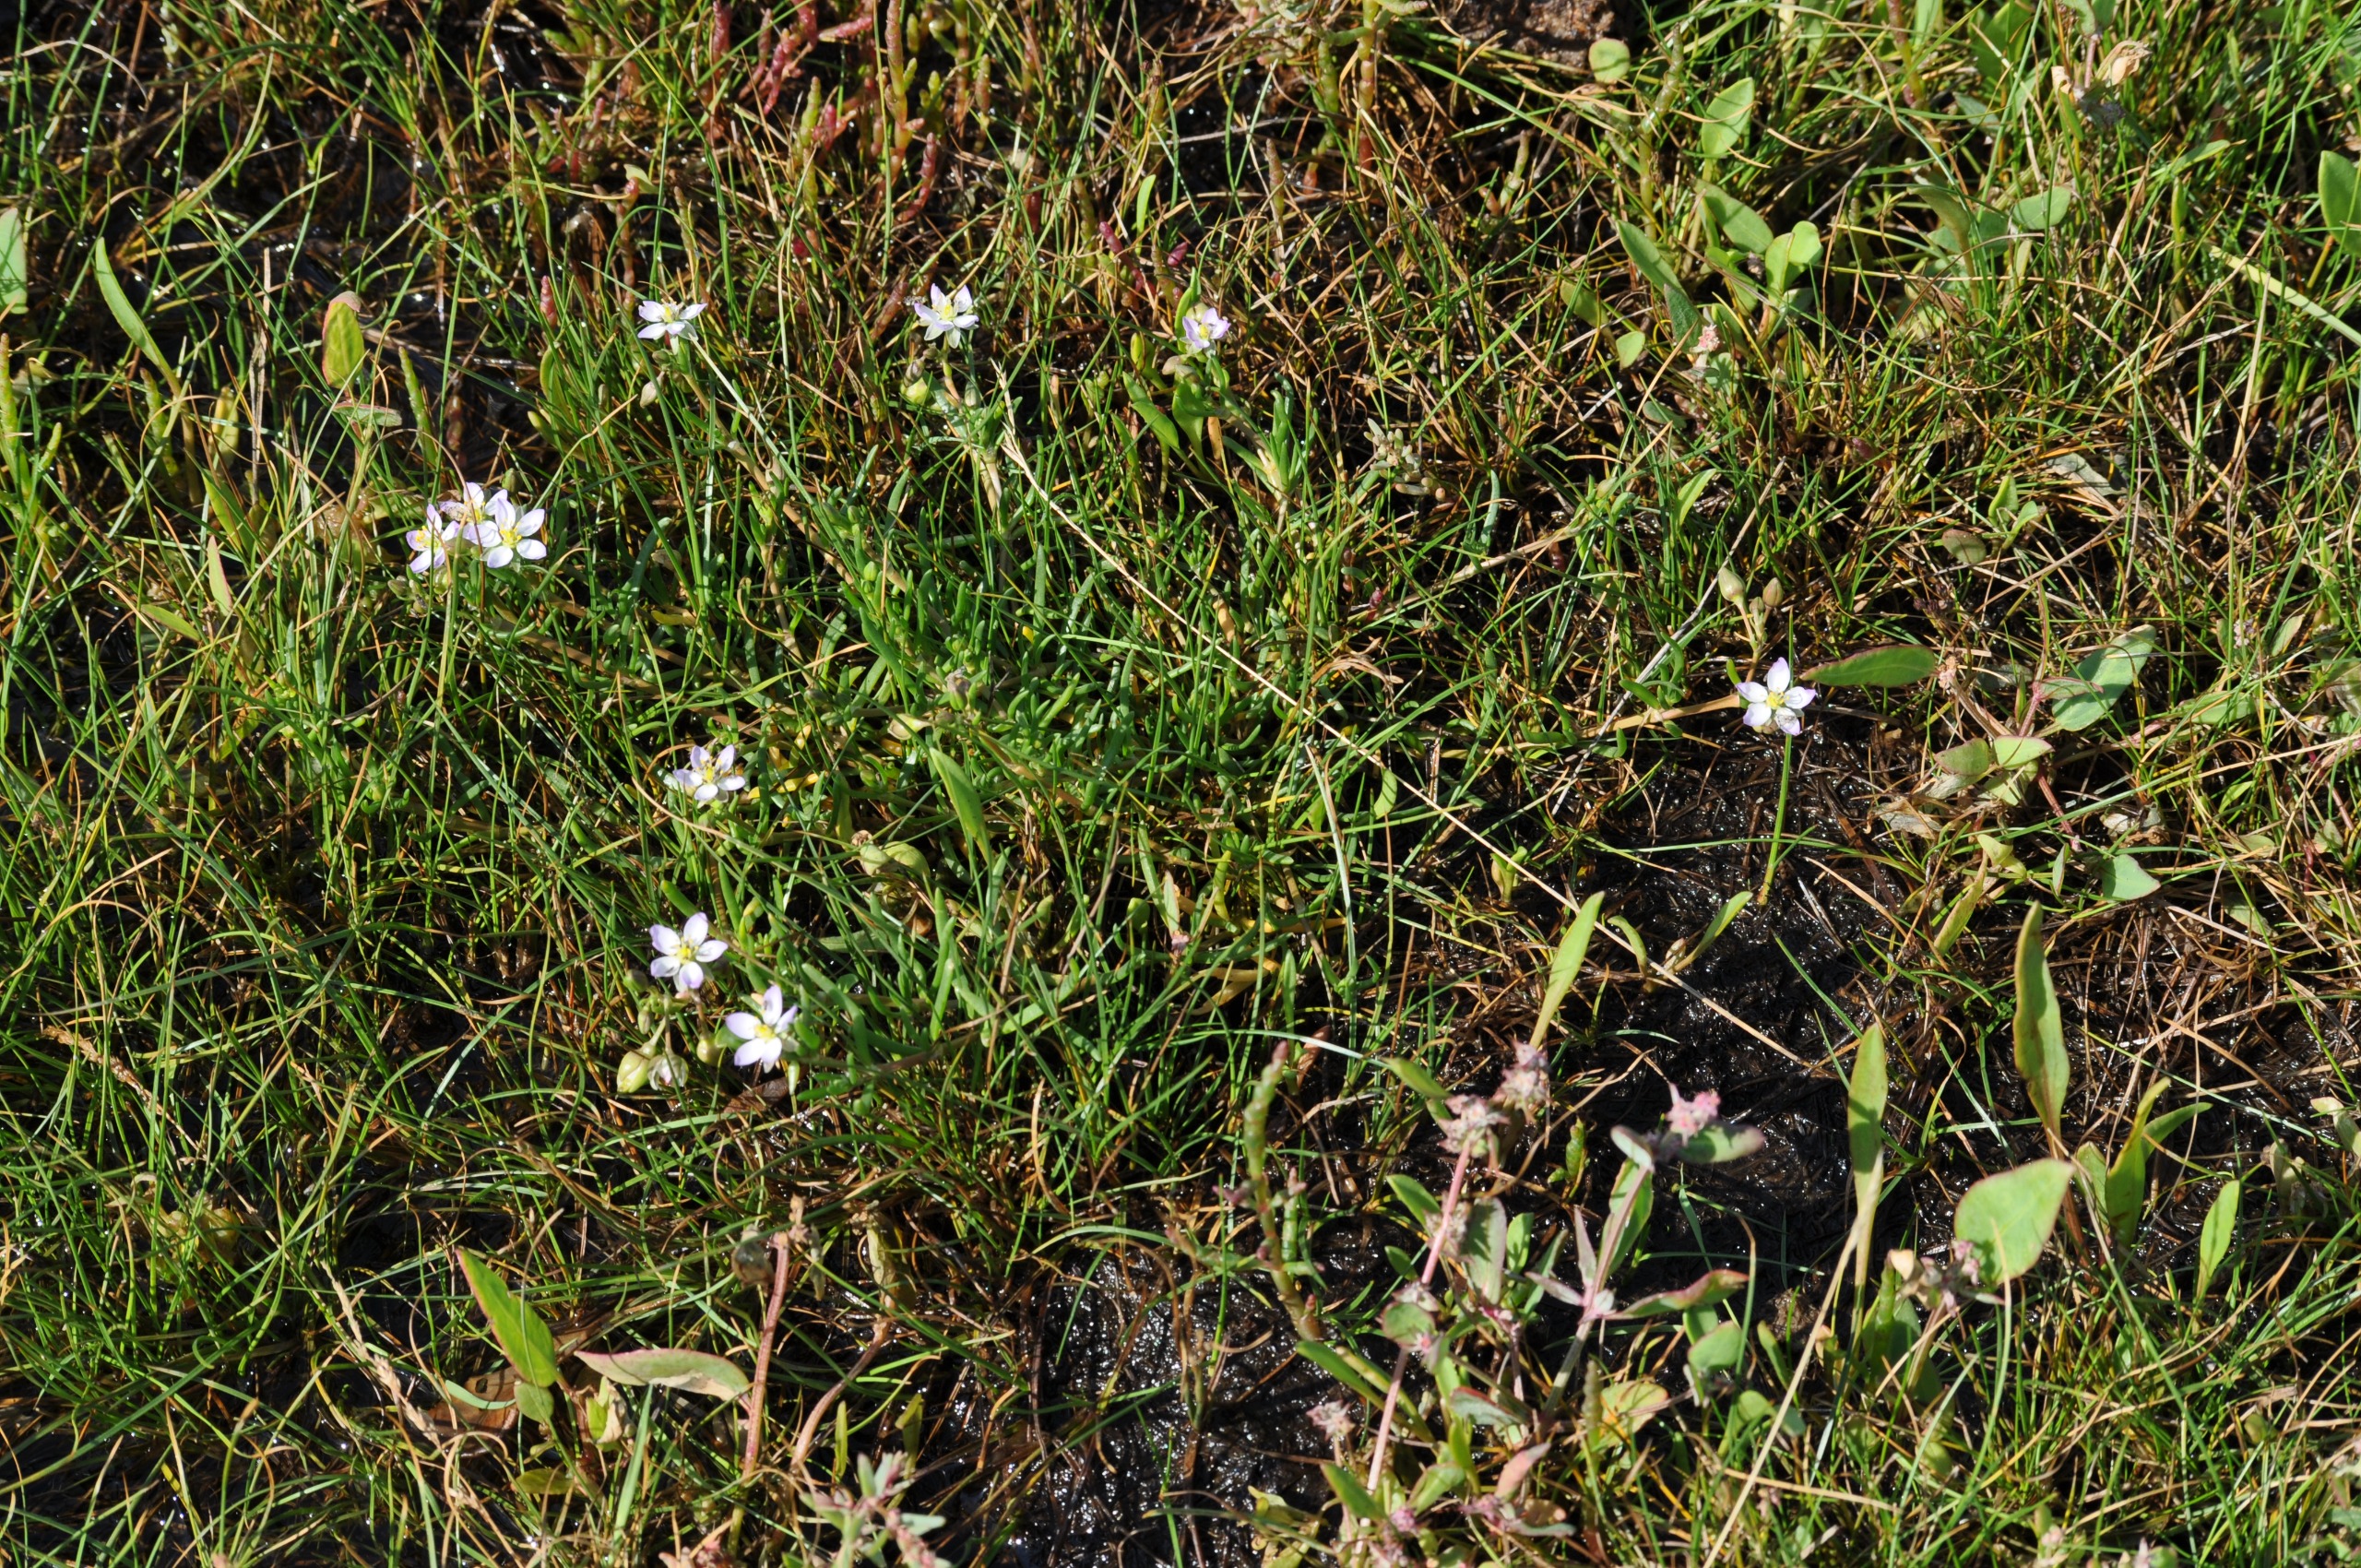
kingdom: Plantae
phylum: Tracheophyta
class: Magnoliopsida
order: Caryophyllales
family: Caryophyllaceae
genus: Spergularia
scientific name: Spergularia media
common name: Vingefrøet hindeknæ
